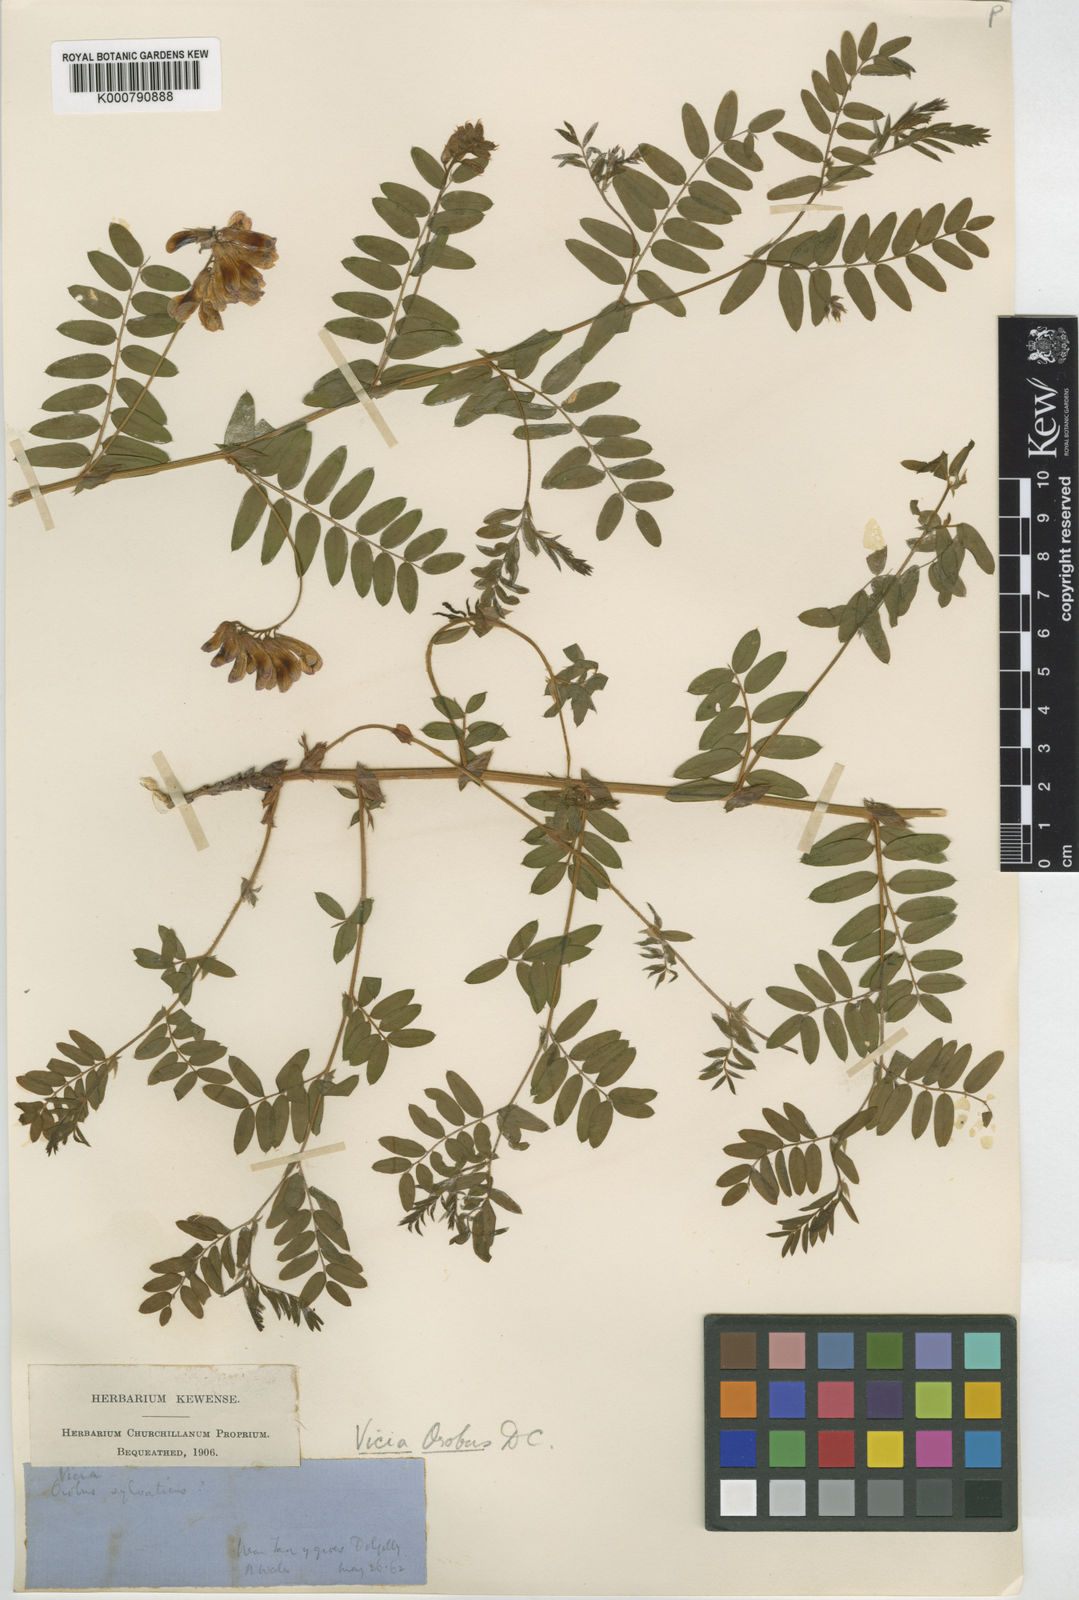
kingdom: Plantae
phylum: Tracheophyta
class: Magnoliopsida
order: Fabales
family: Fabaceae
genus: Vicia
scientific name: Vicia orobus
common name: Wood bitter-vetch
